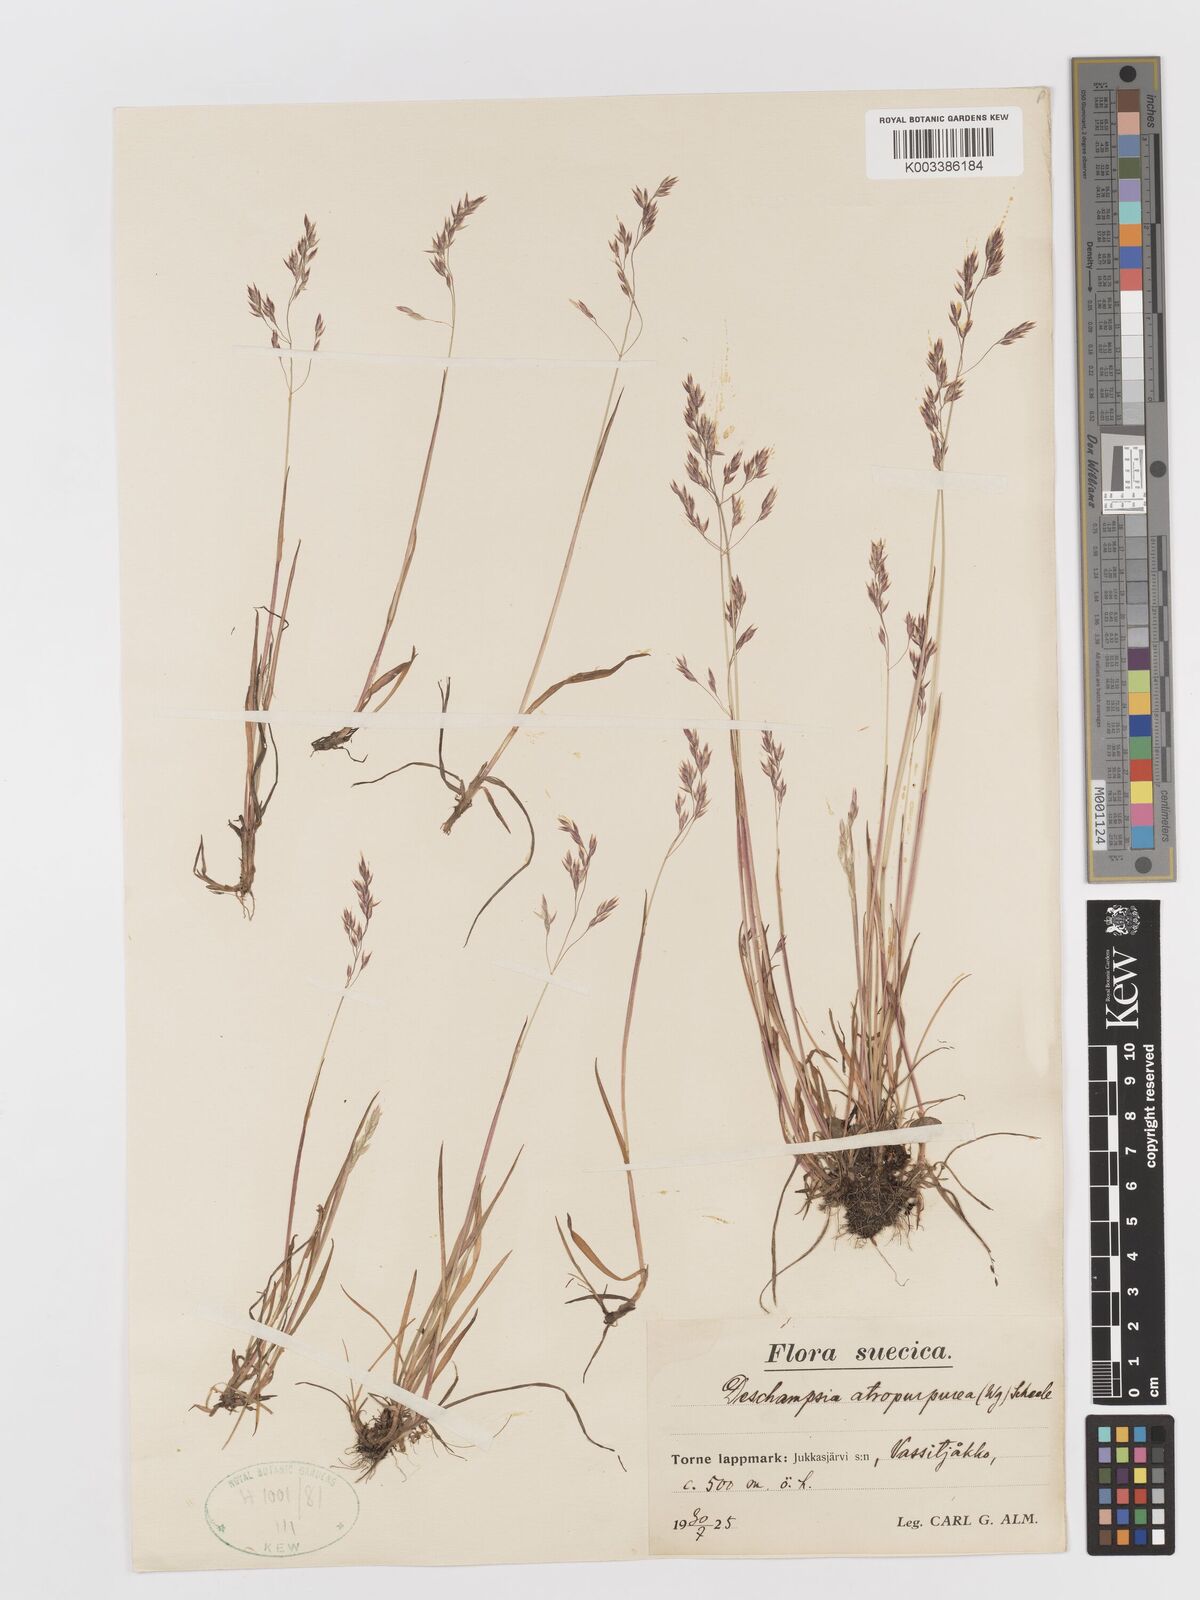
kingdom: Plantae
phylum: Tracheophyta
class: Liliopsida
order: Poales
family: Poaceae
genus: Vahlodea
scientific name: Vahlodea atropurpurea
